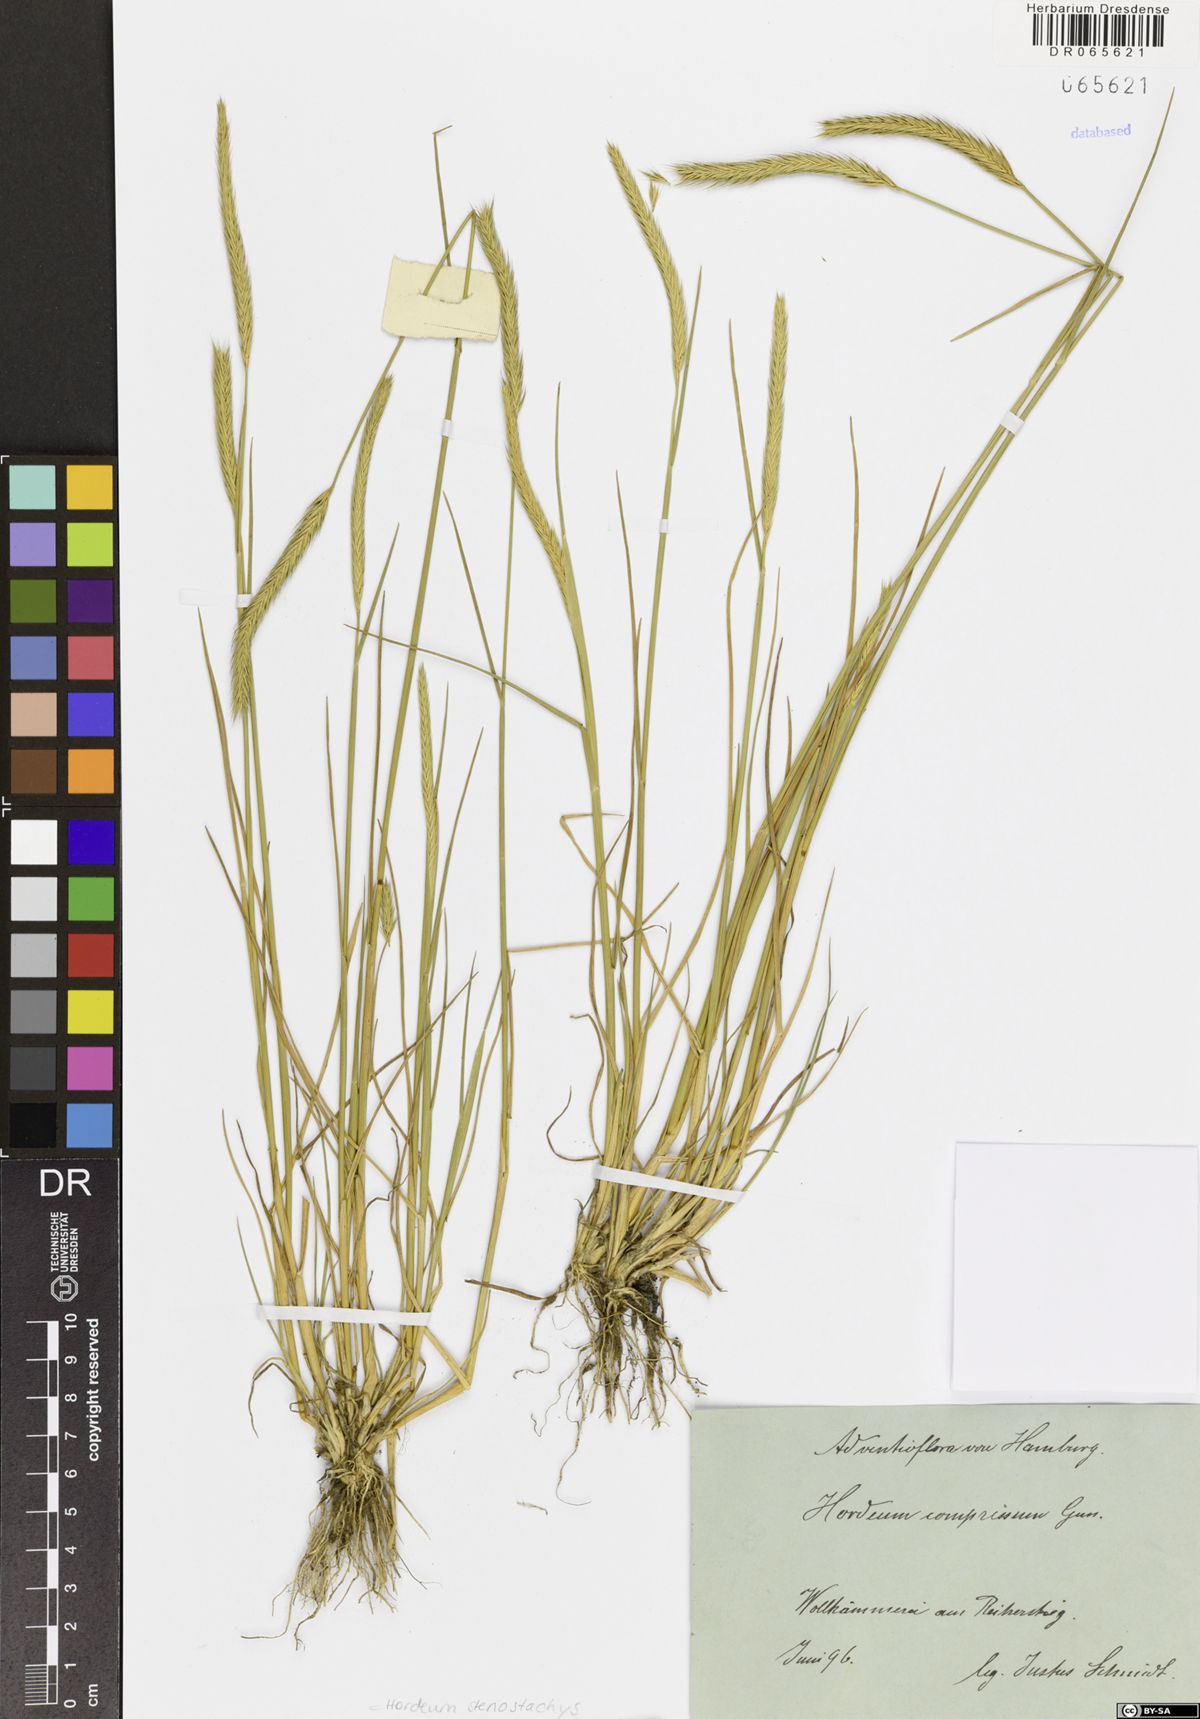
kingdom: Plantae
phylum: Tracheophyta
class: Liliopsida
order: Poales
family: Poaceae
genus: Hordeum
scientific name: Hordeum stenostachys
